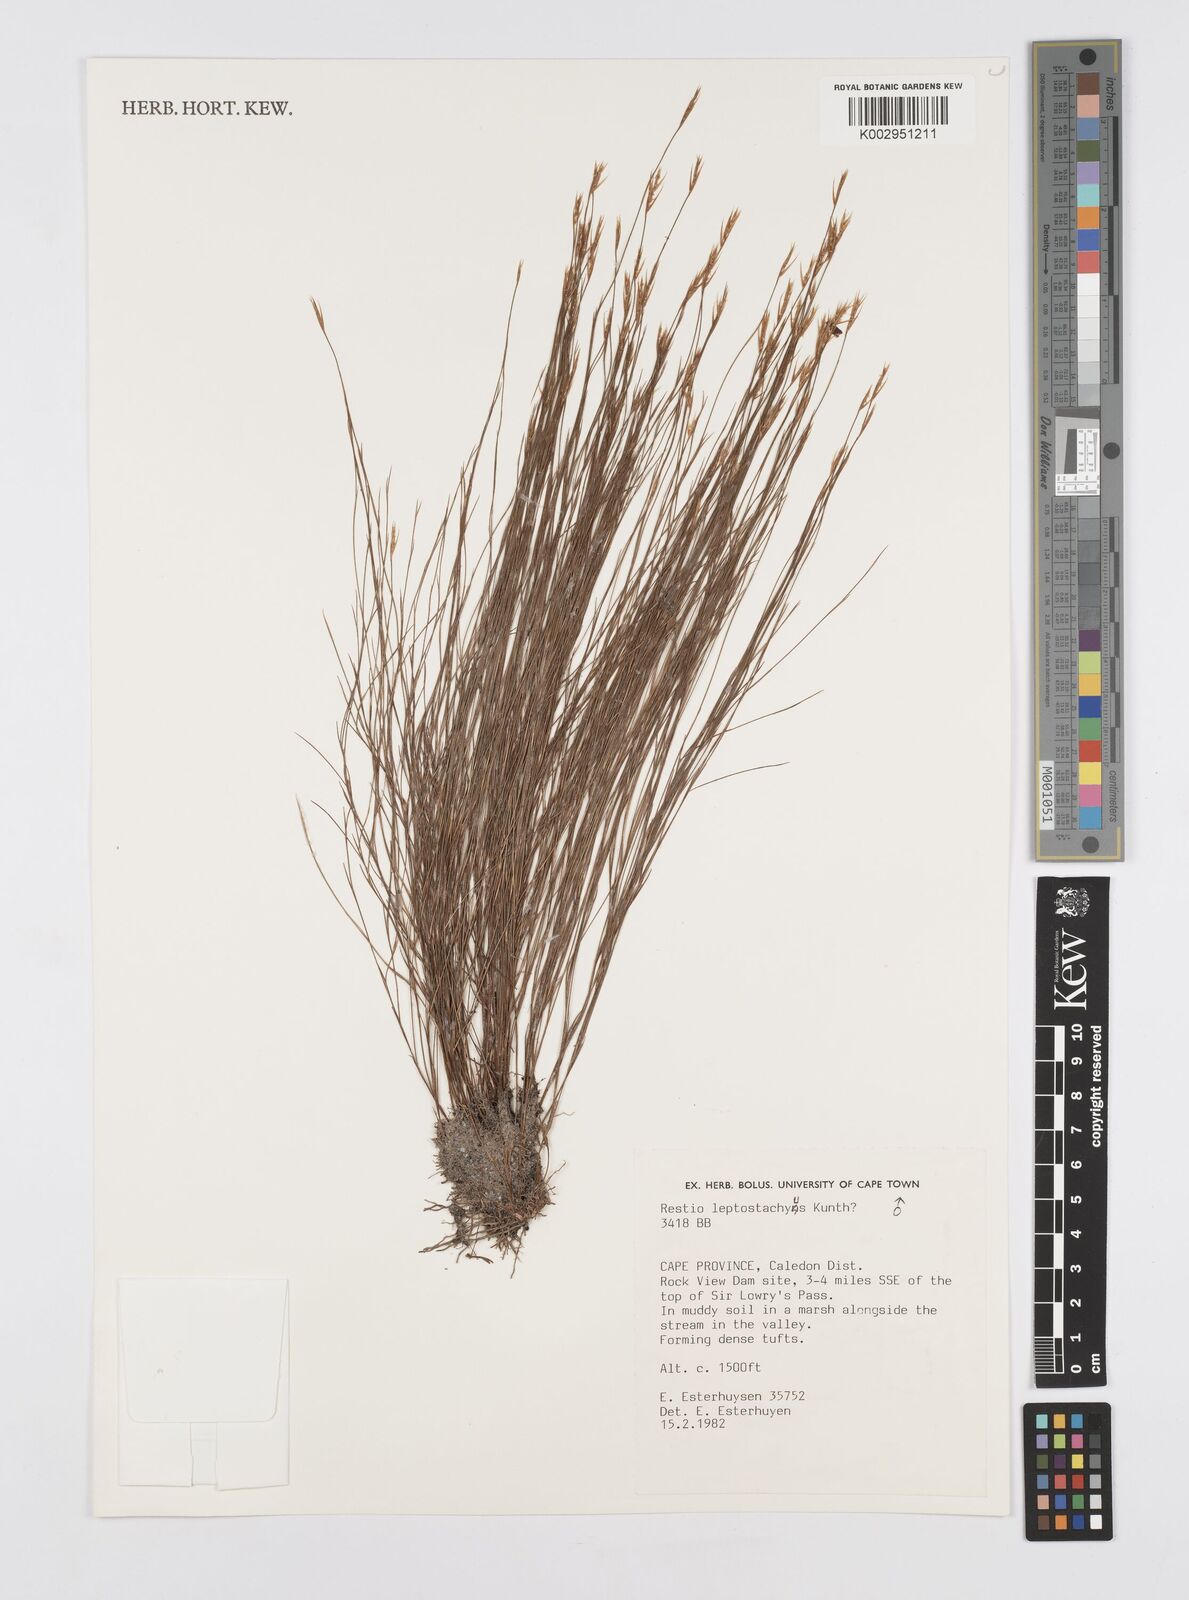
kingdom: Plantae
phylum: Tracheophyta
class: Liliopsida
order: Poales
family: Restionaceae
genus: Restio
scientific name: Restio leptostachyus
